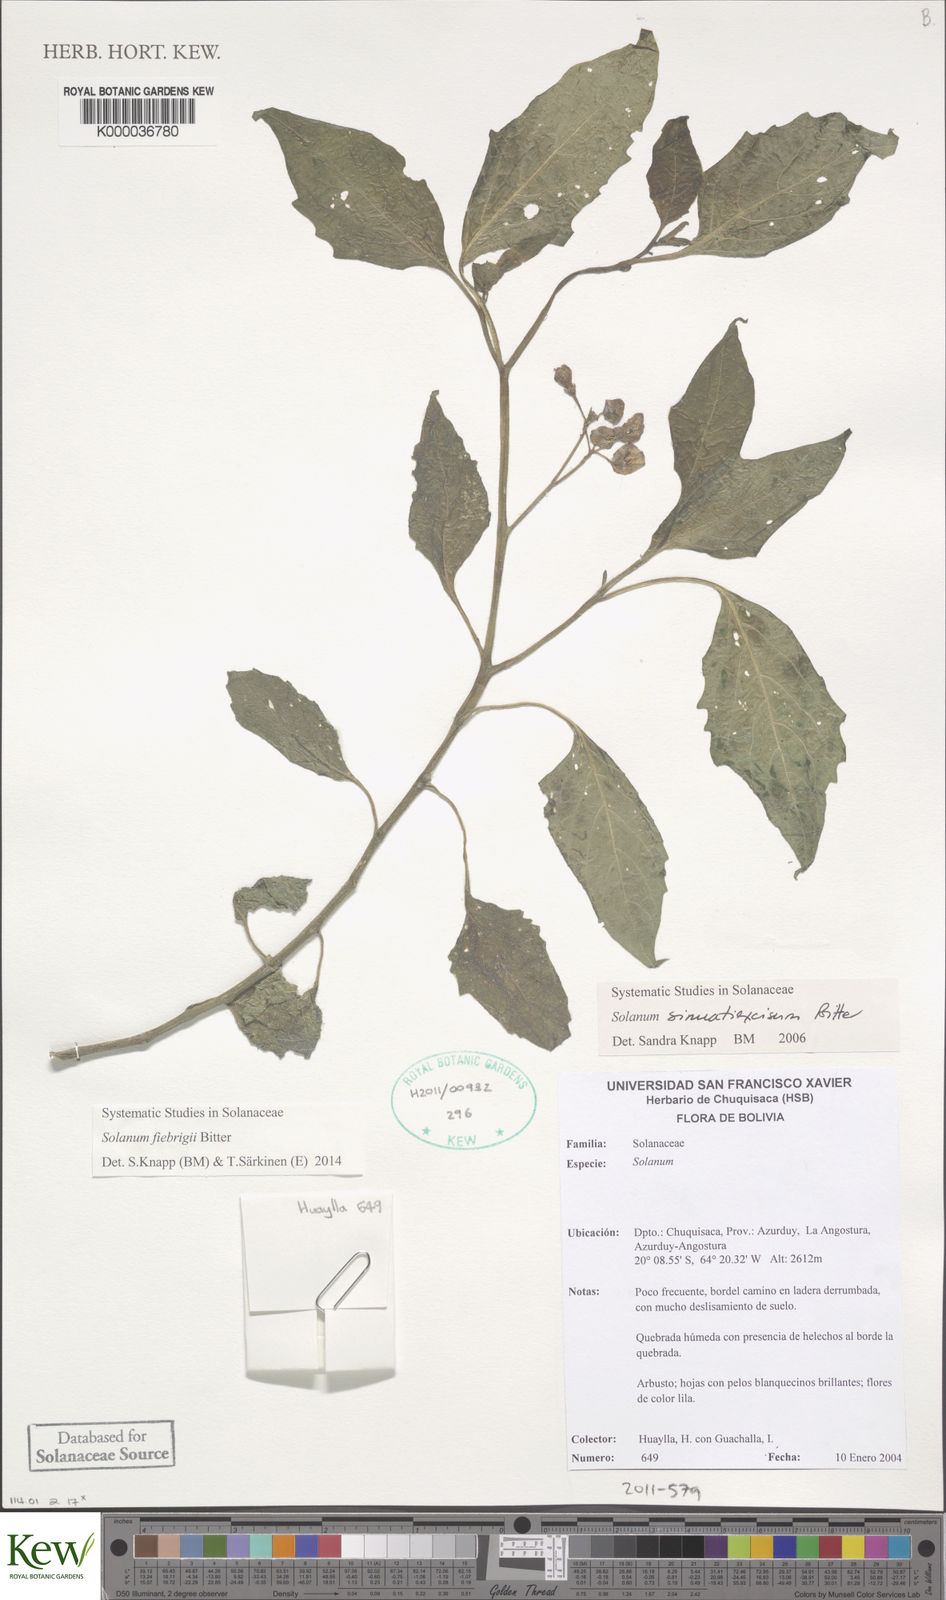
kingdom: Plantae
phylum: Tracheophyta
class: Magnoliopsida
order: Solanales
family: Solanaceae
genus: Solanum
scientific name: Solanum sinuatiexcisum
